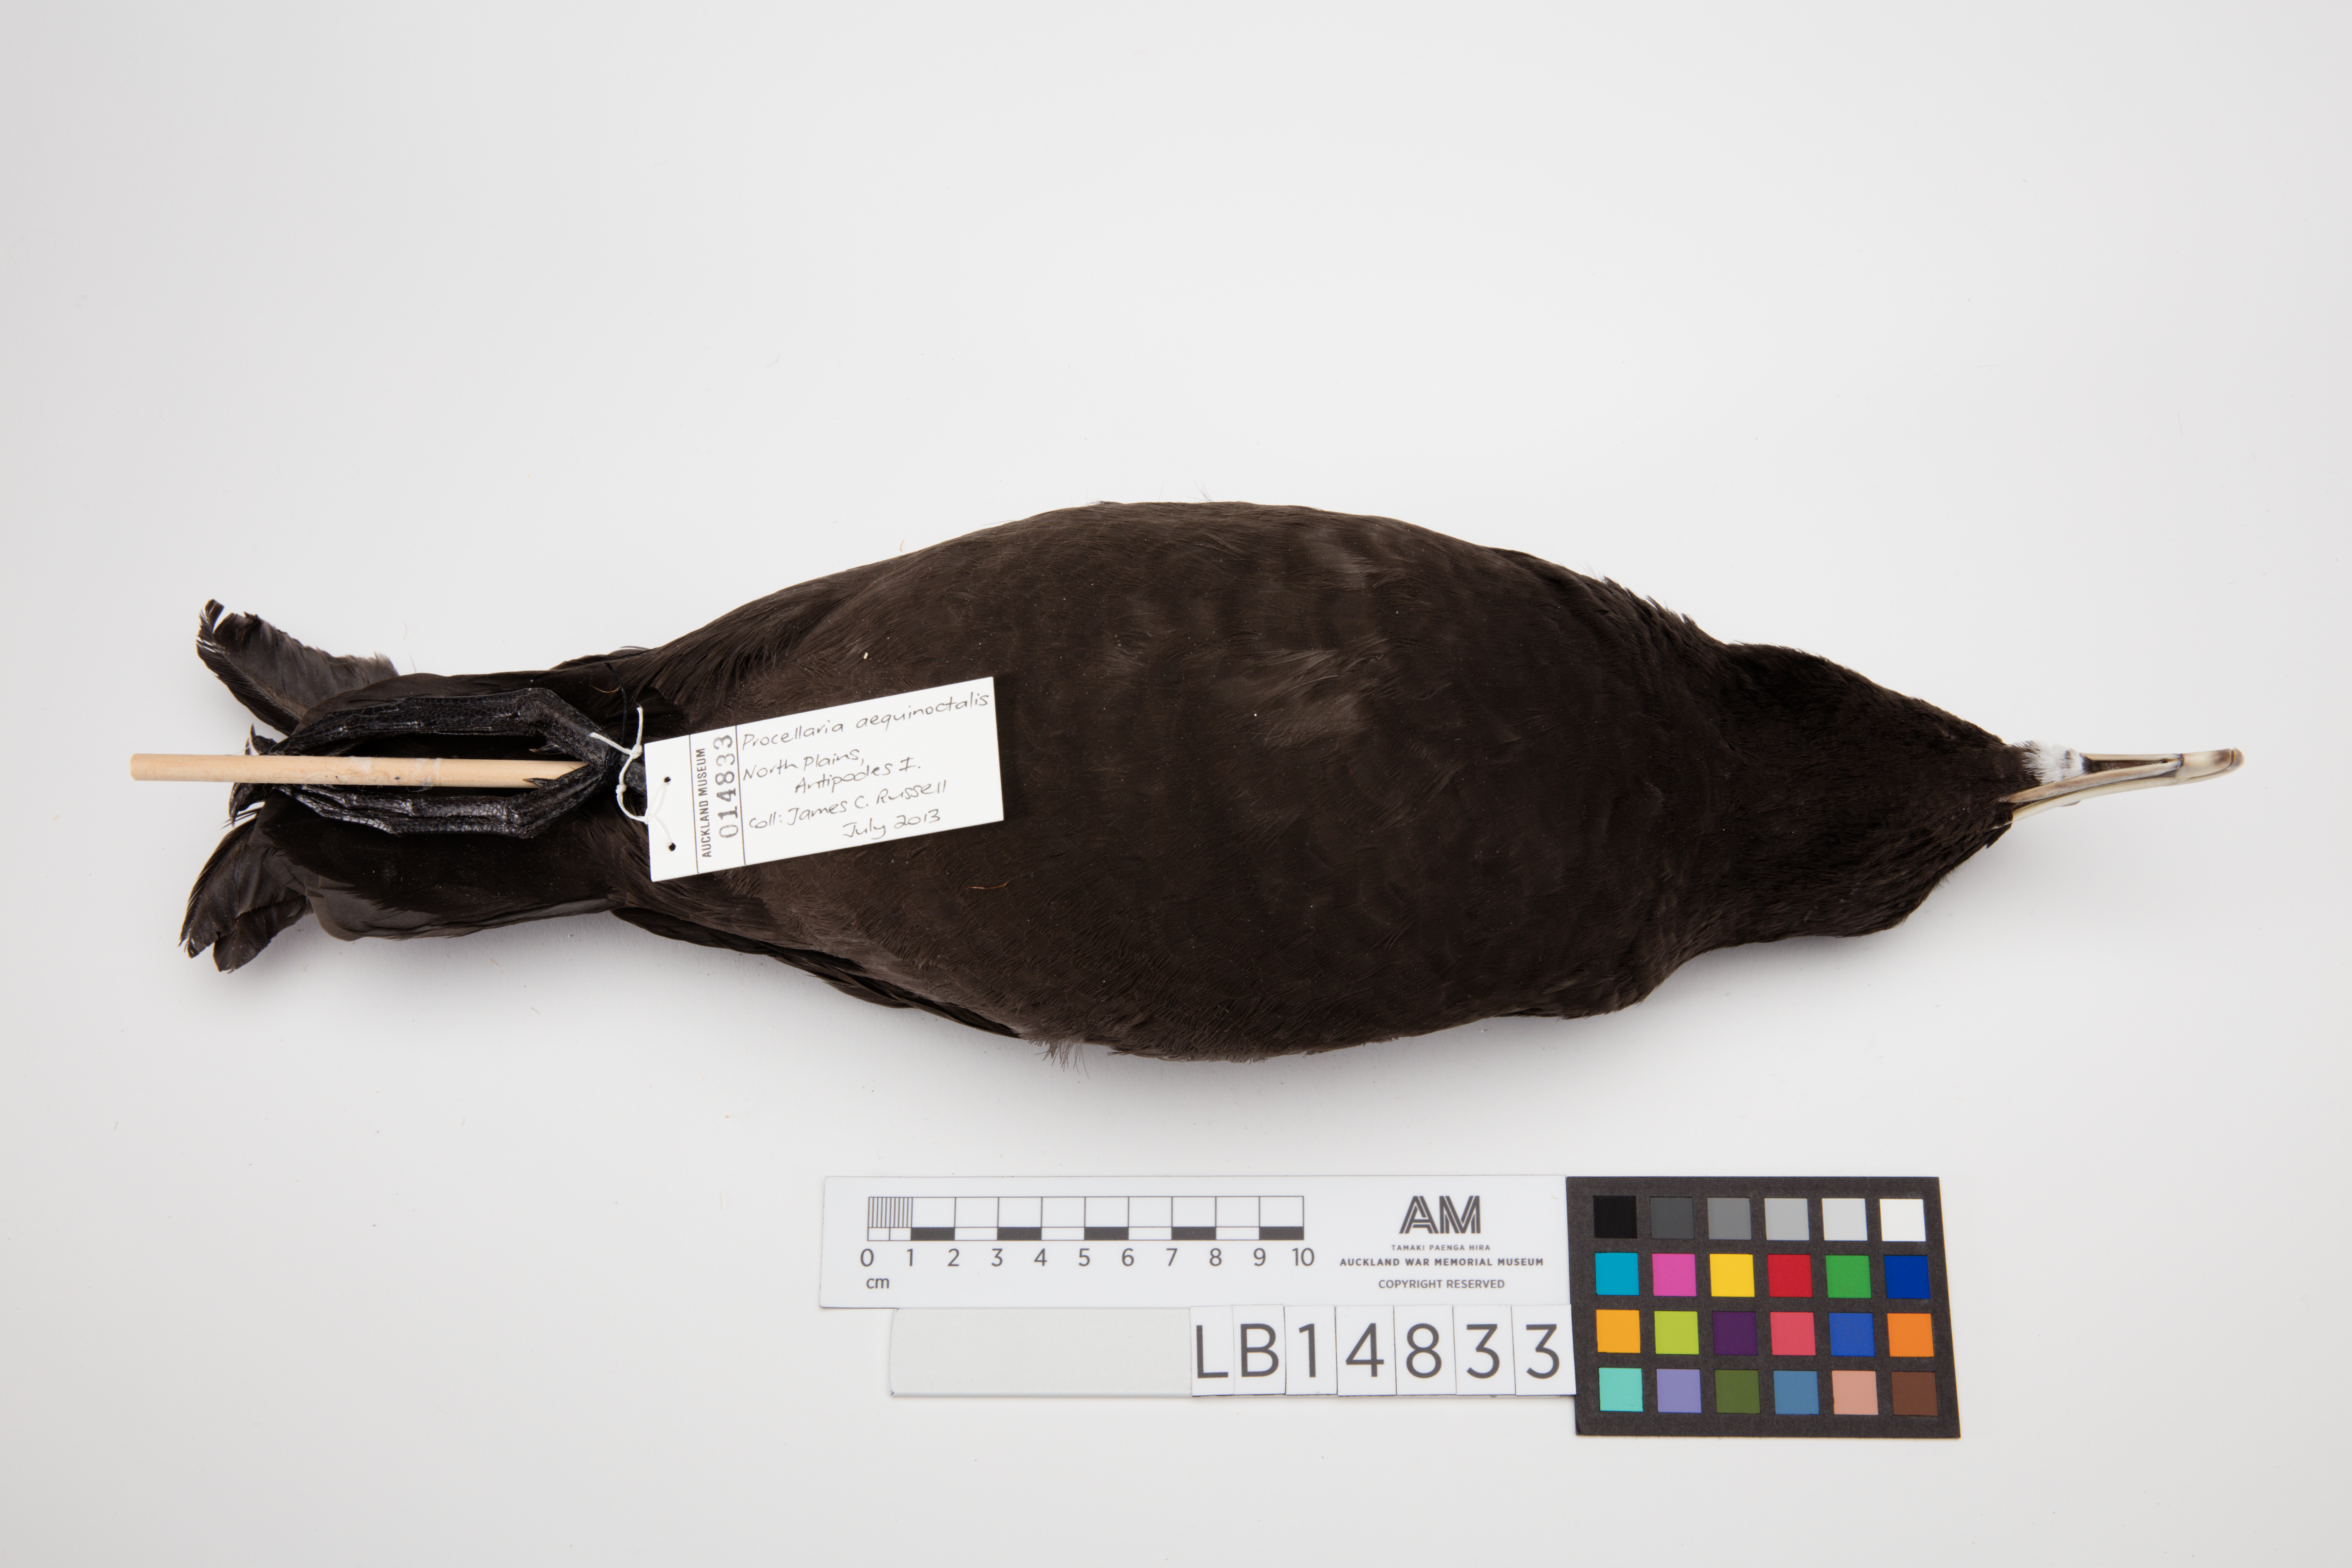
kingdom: Animalia
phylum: Chordata
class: Aves
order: Procellariiformes
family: Procellariidae
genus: Procellaria
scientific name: Procellaria aequinoctialis
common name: White-chinned petrel
